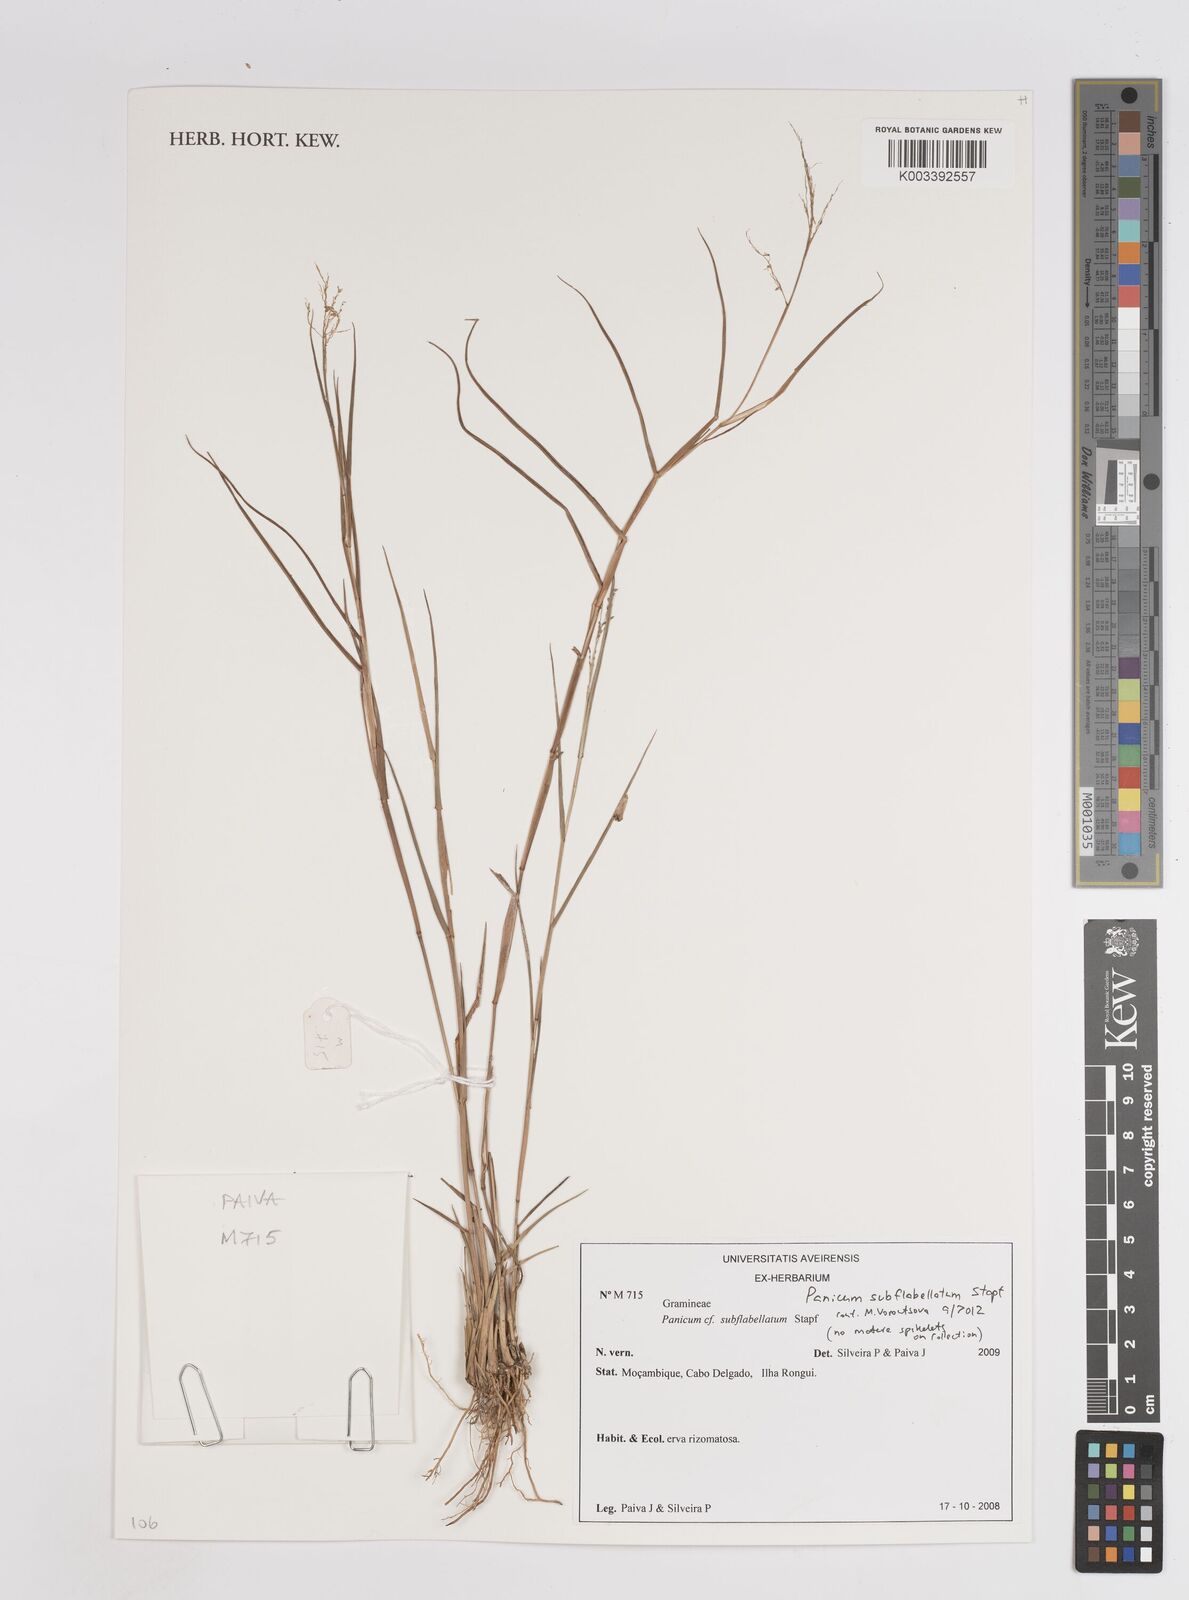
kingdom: Plantae
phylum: Tracheophyta
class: Liliopsida
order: Poales
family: Poaceae
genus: Panicum
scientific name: Panicum subflabellatum
